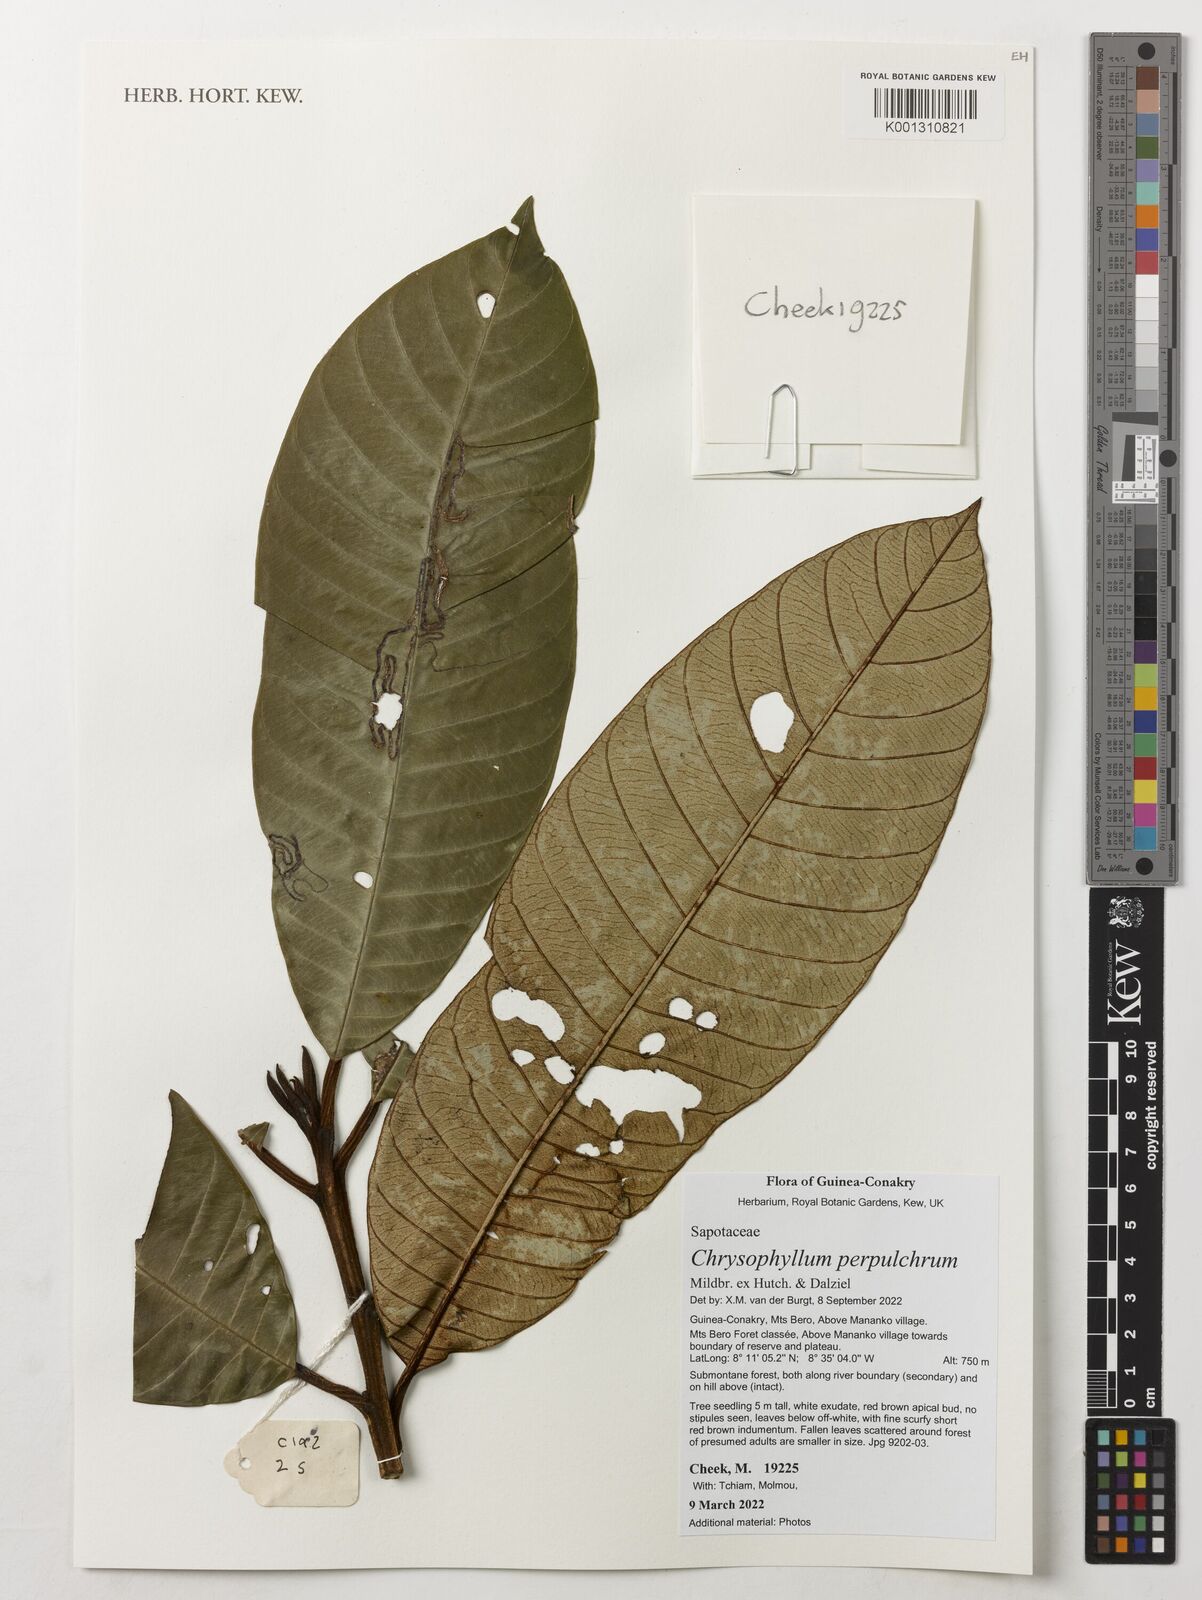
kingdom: Plantae
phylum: Tracheophyta
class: Magnoliopsida
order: Ericales
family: Sapotaceae
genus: Gambeya
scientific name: Gambeya perpulchra
